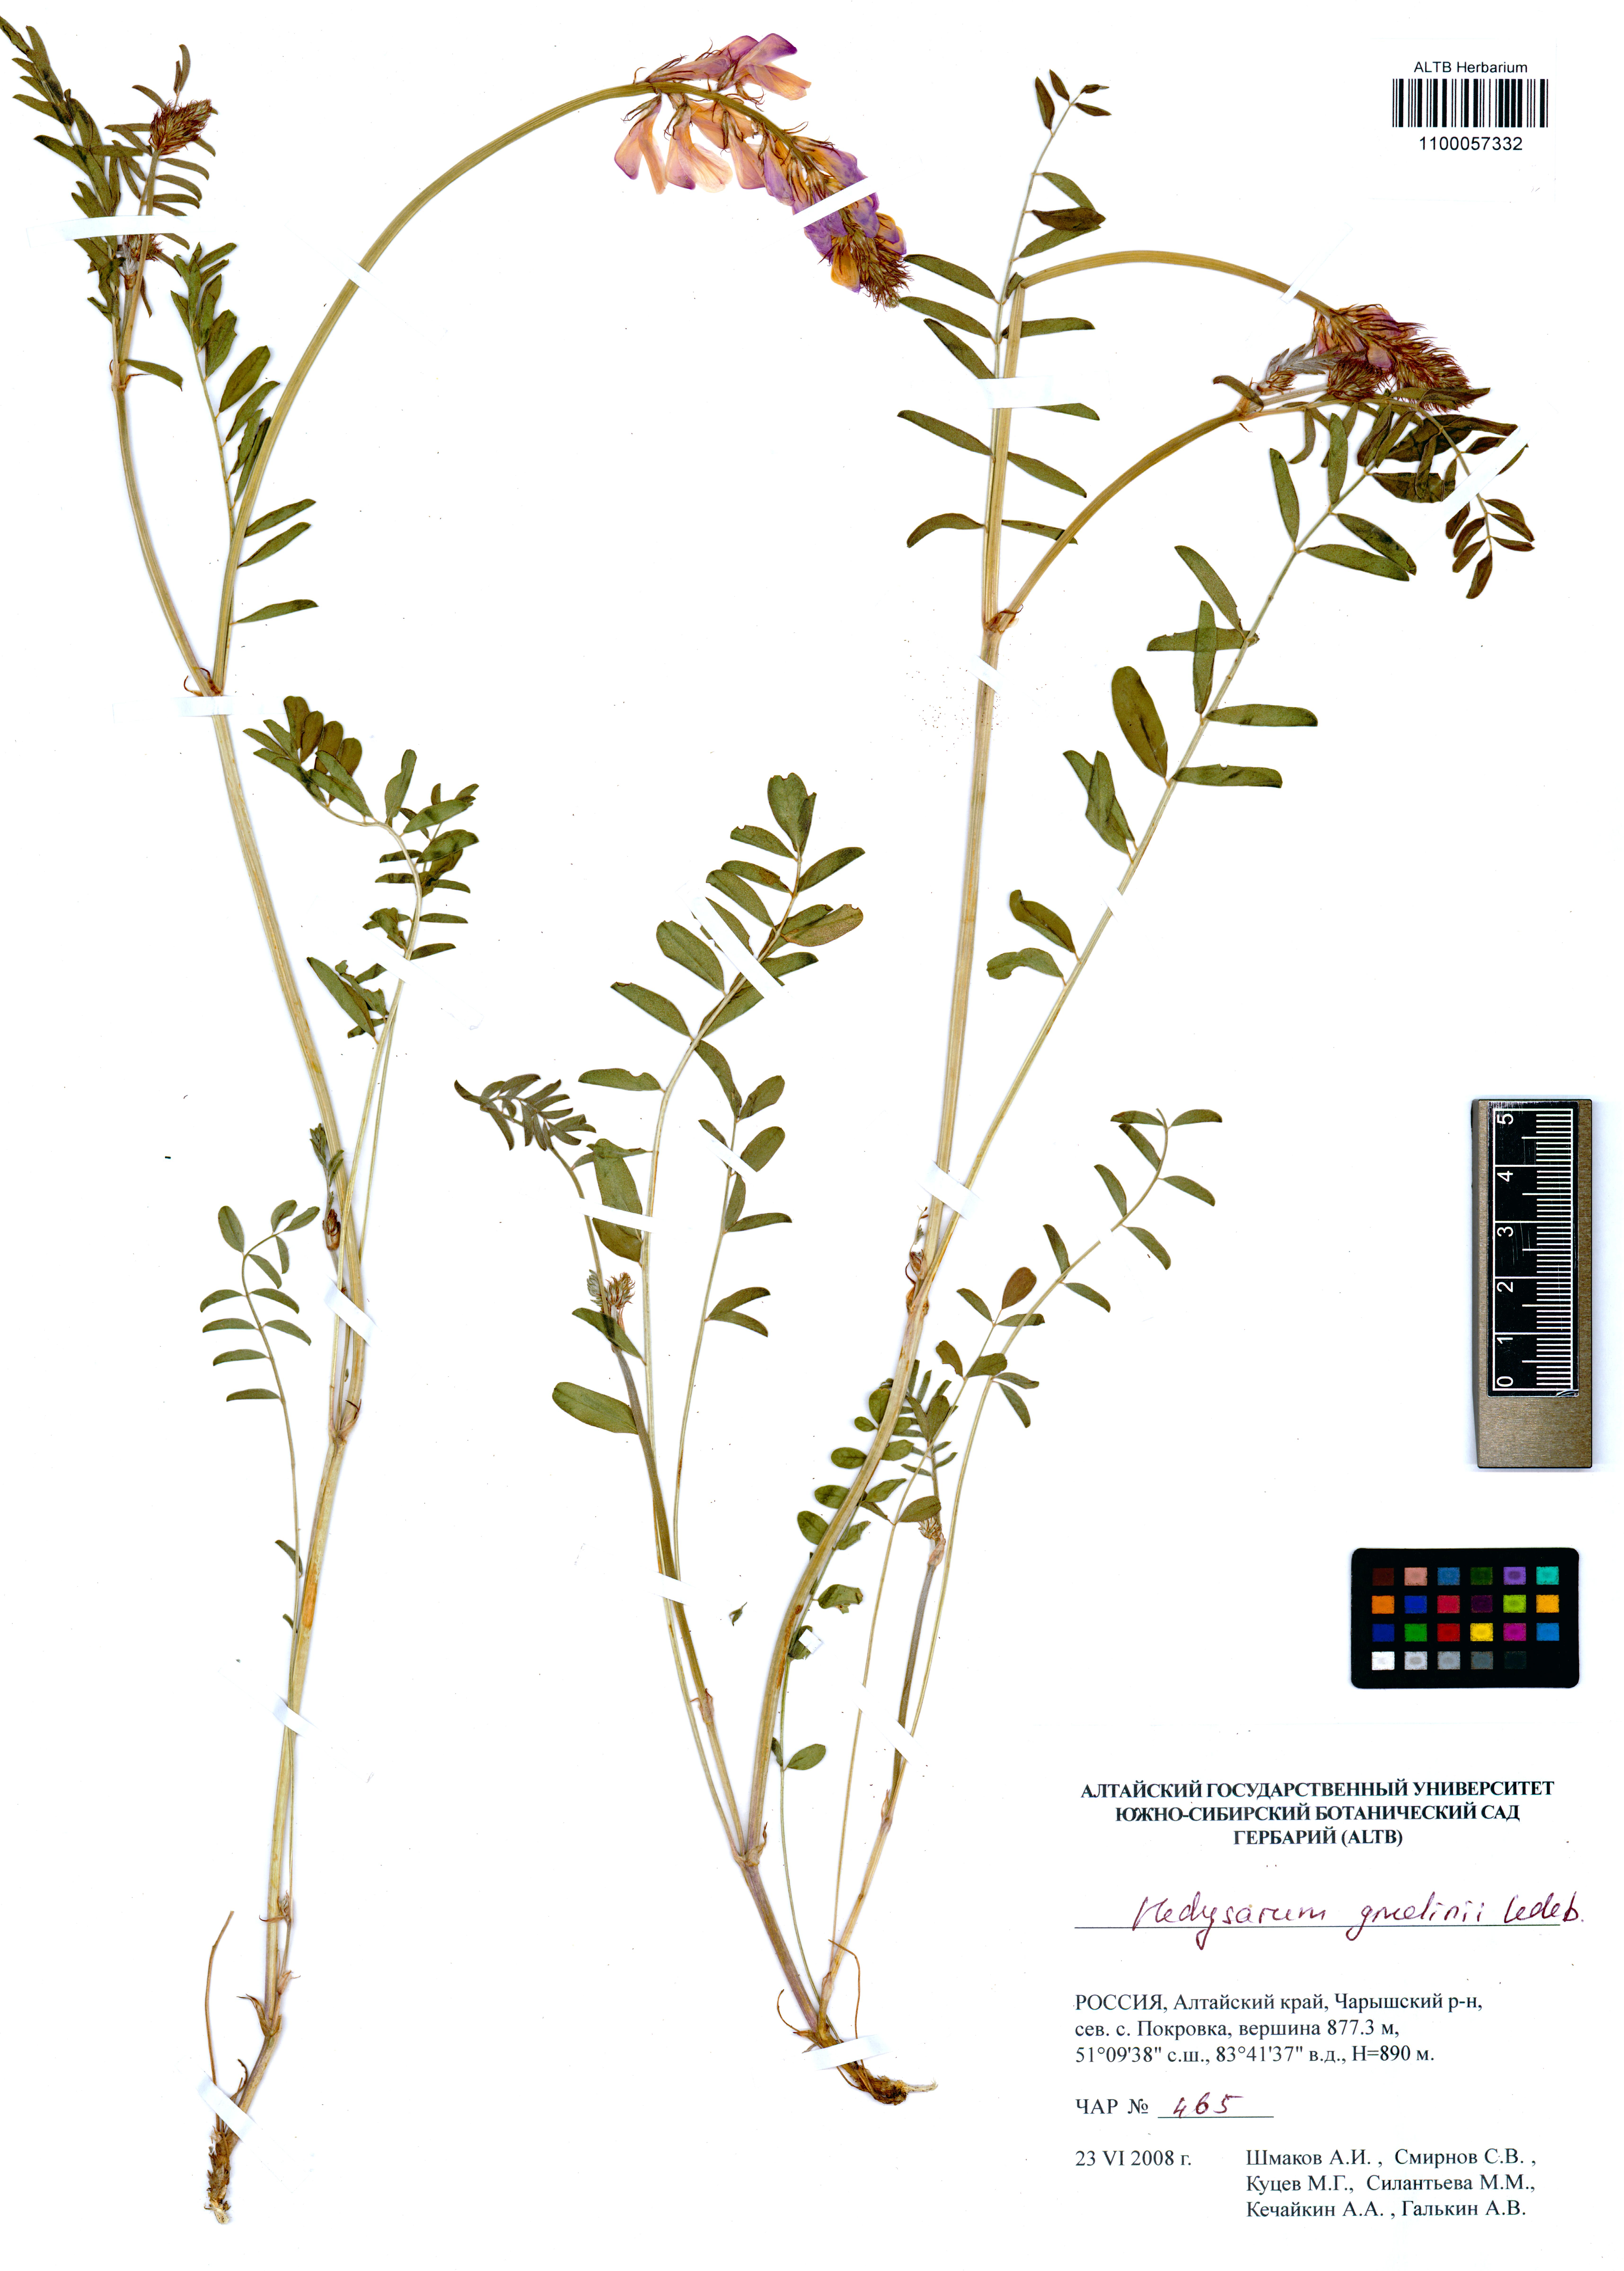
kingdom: Plantae
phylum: Tracheophyta
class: Magnoliopsida
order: Fabales
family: Fabaceae
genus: Hedysarum
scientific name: Hedysarum gmelinii
